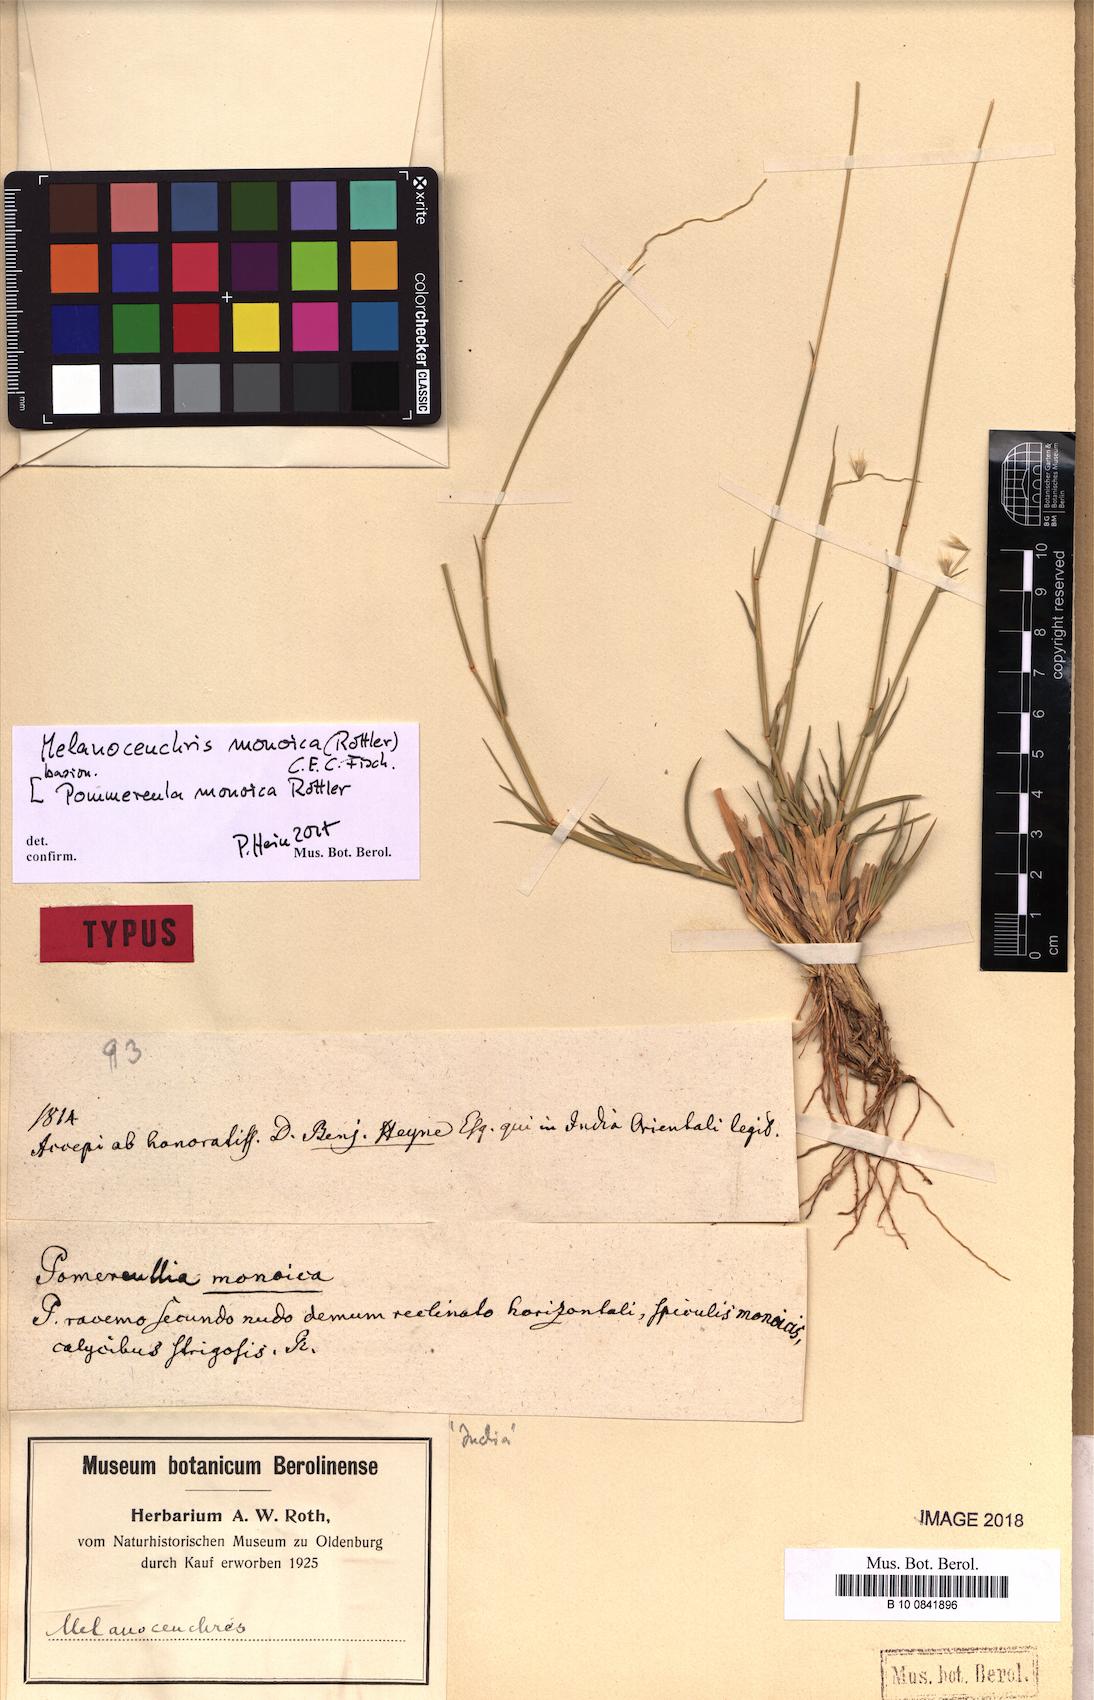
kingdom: Plantae
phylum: Tracheophyta
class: Liliopsida
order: Poales
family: Poaceae
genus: Melanocenchris
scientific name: Melanocenchris rothiana
